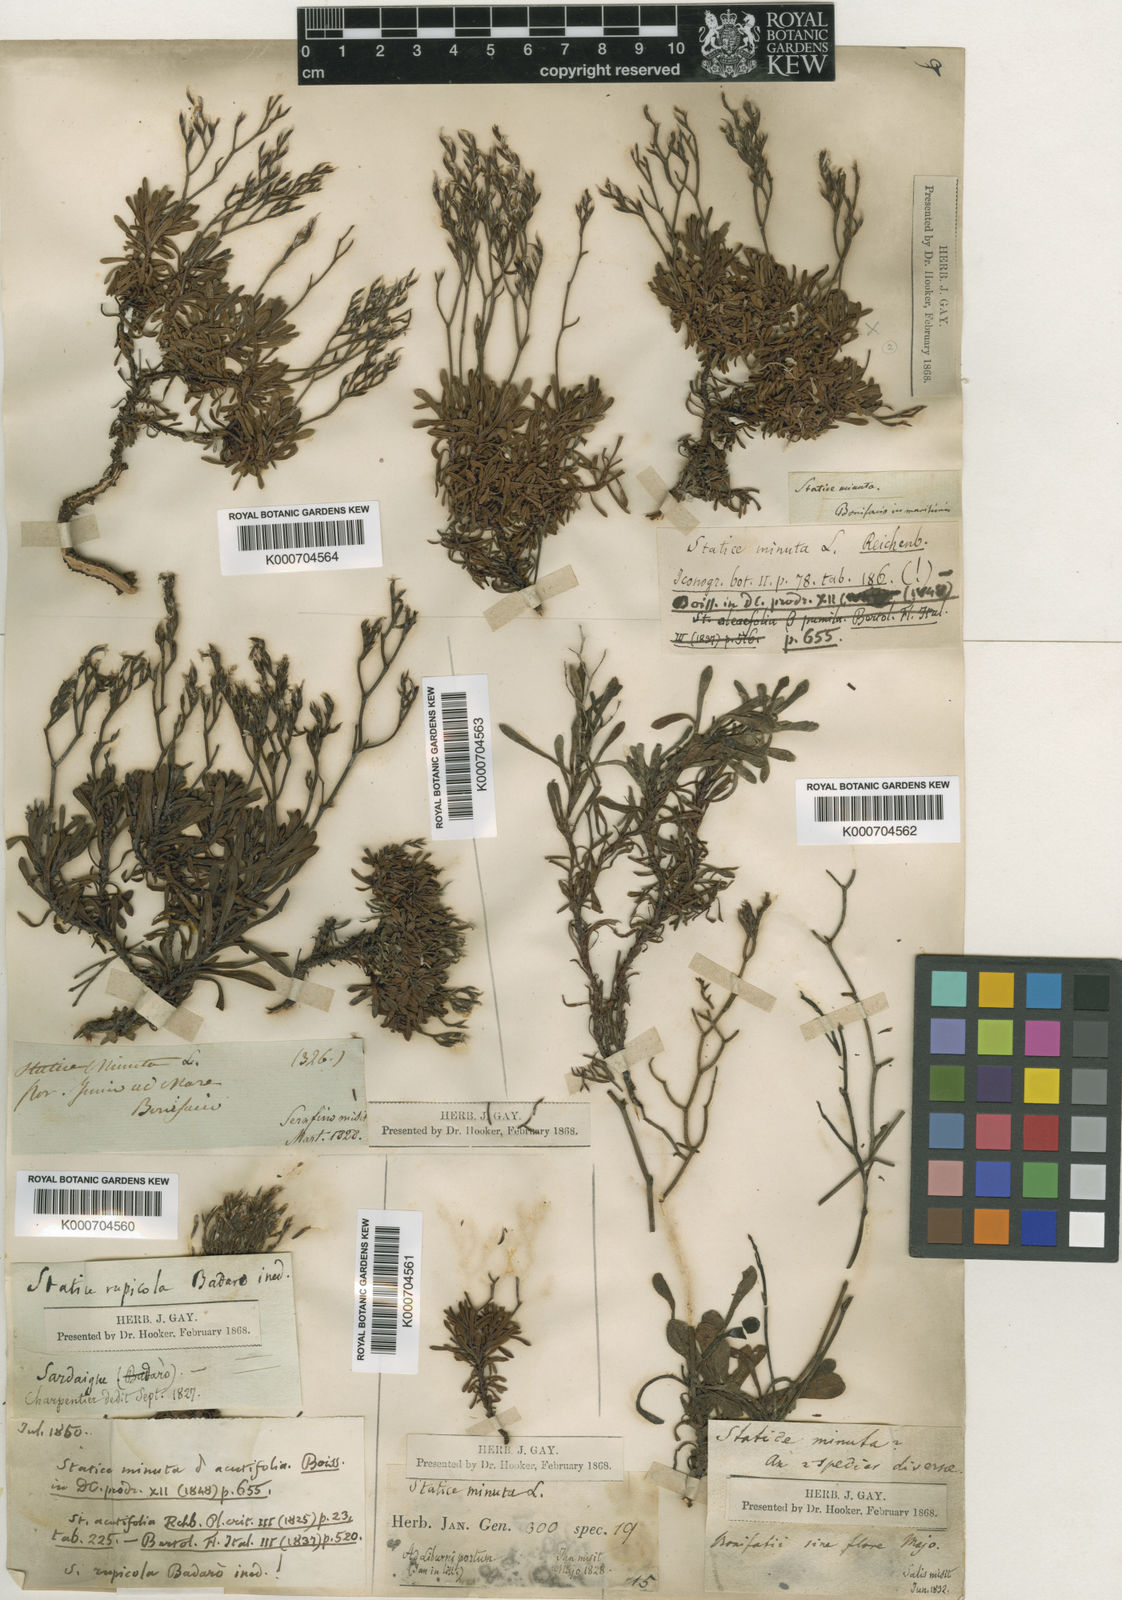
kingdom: Plantae
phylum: Tracheophyta
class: Magnoliopsida
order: Caryophyllales
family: Plumbaginaceae
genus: Limonium
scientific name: Limonium acutifolium
